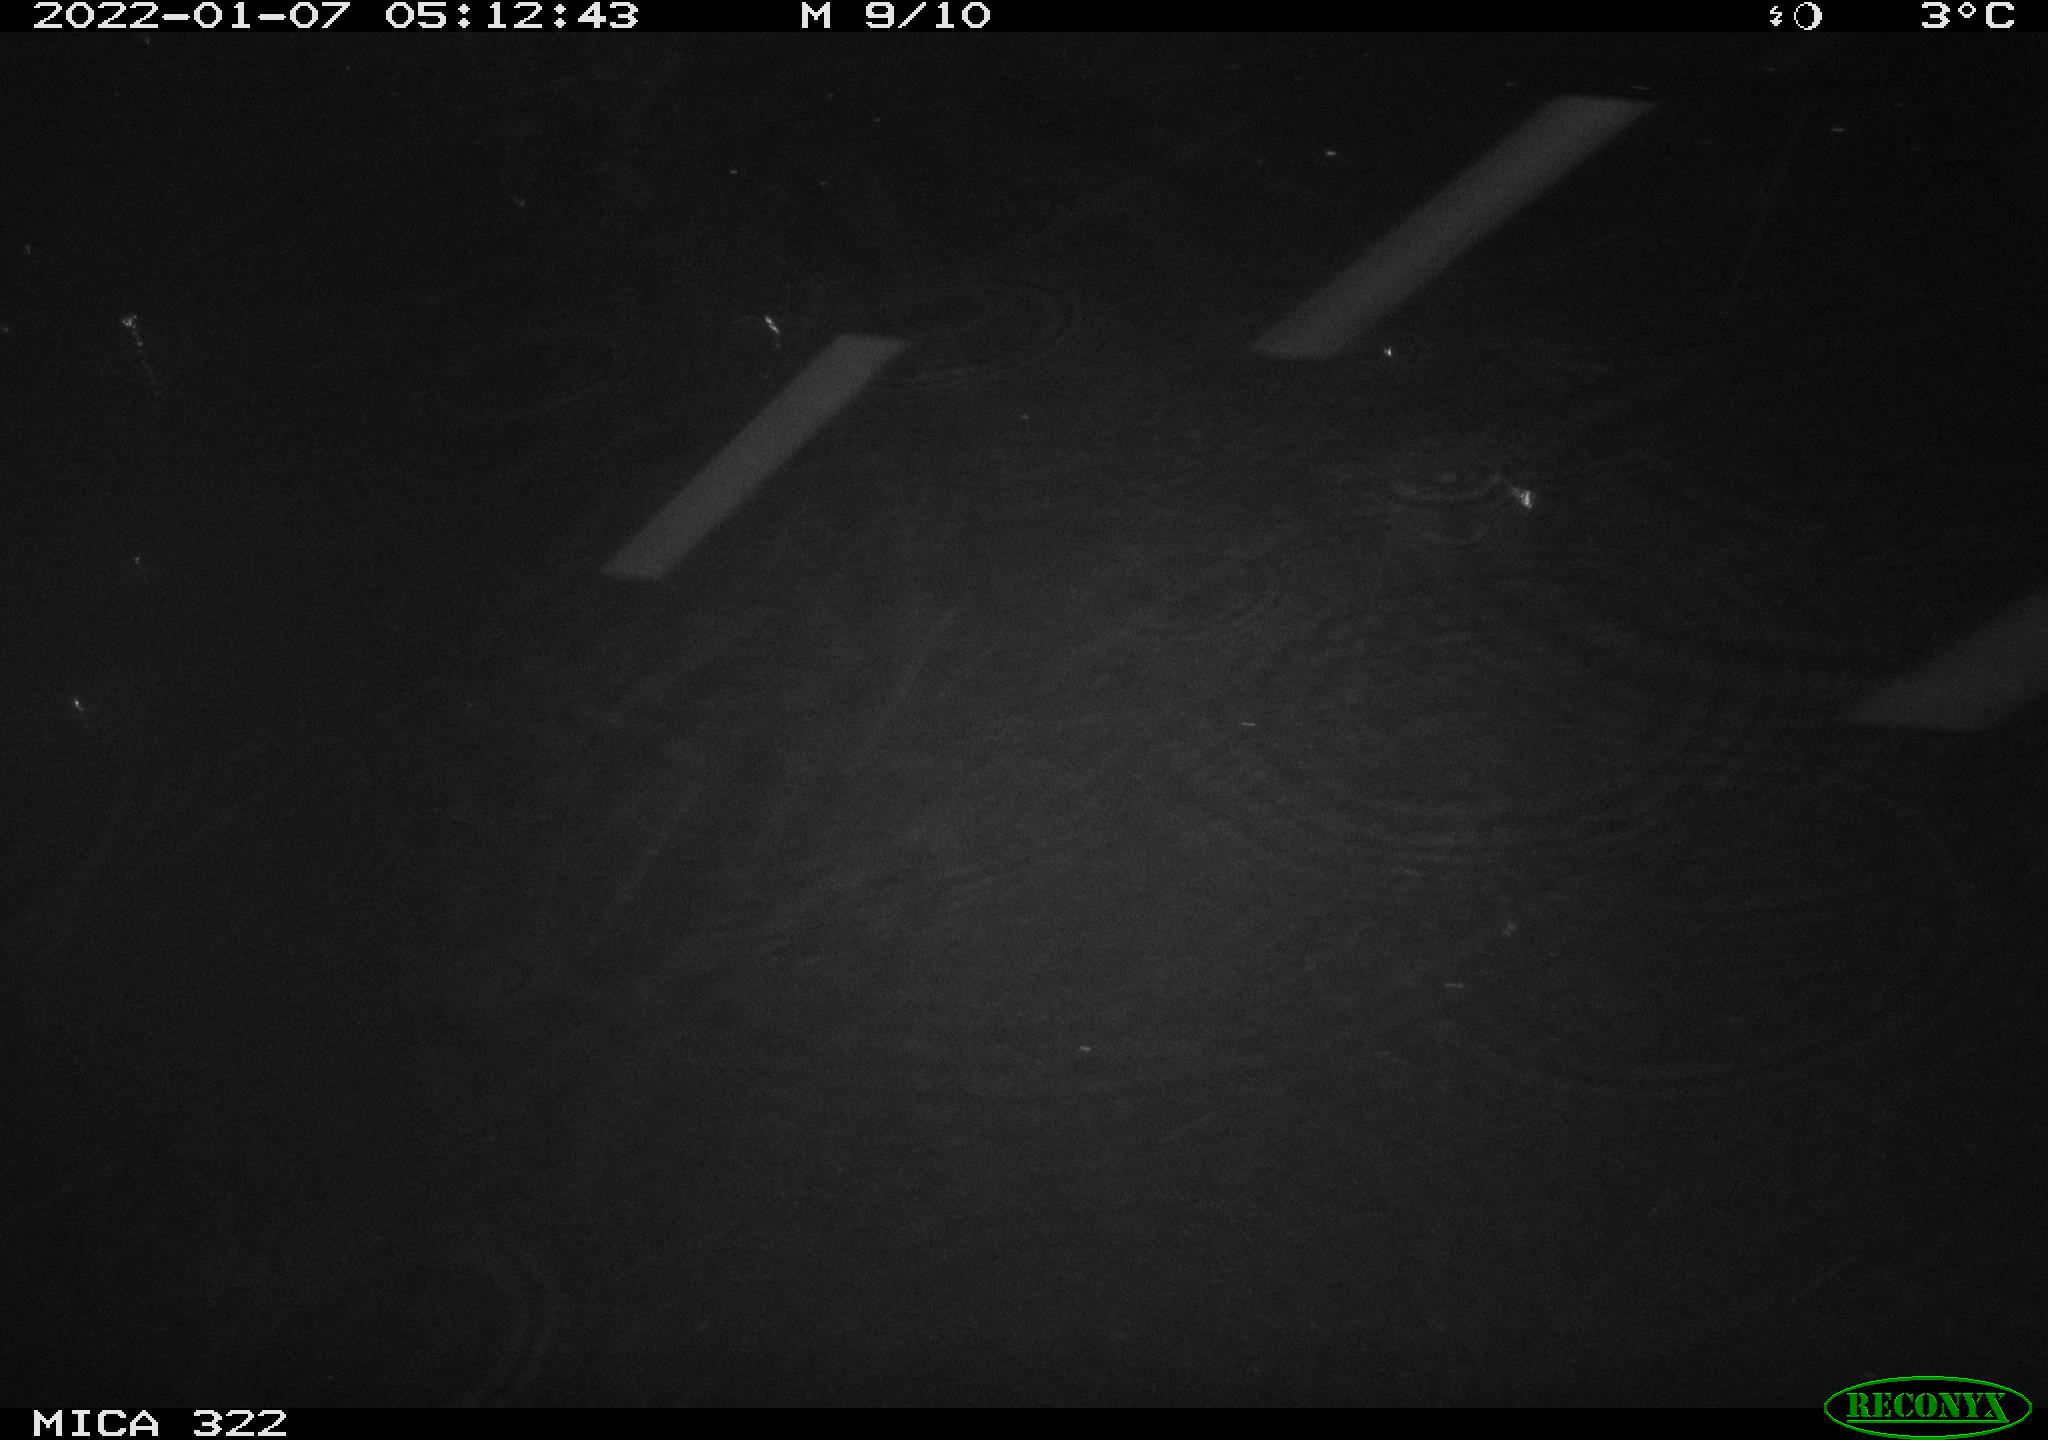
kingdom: Animalia
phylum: Chordata
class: Mammalia
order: Rodentia
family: Muridae
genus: Rattus
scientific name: Rattus norvegicus
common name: Brown rat
